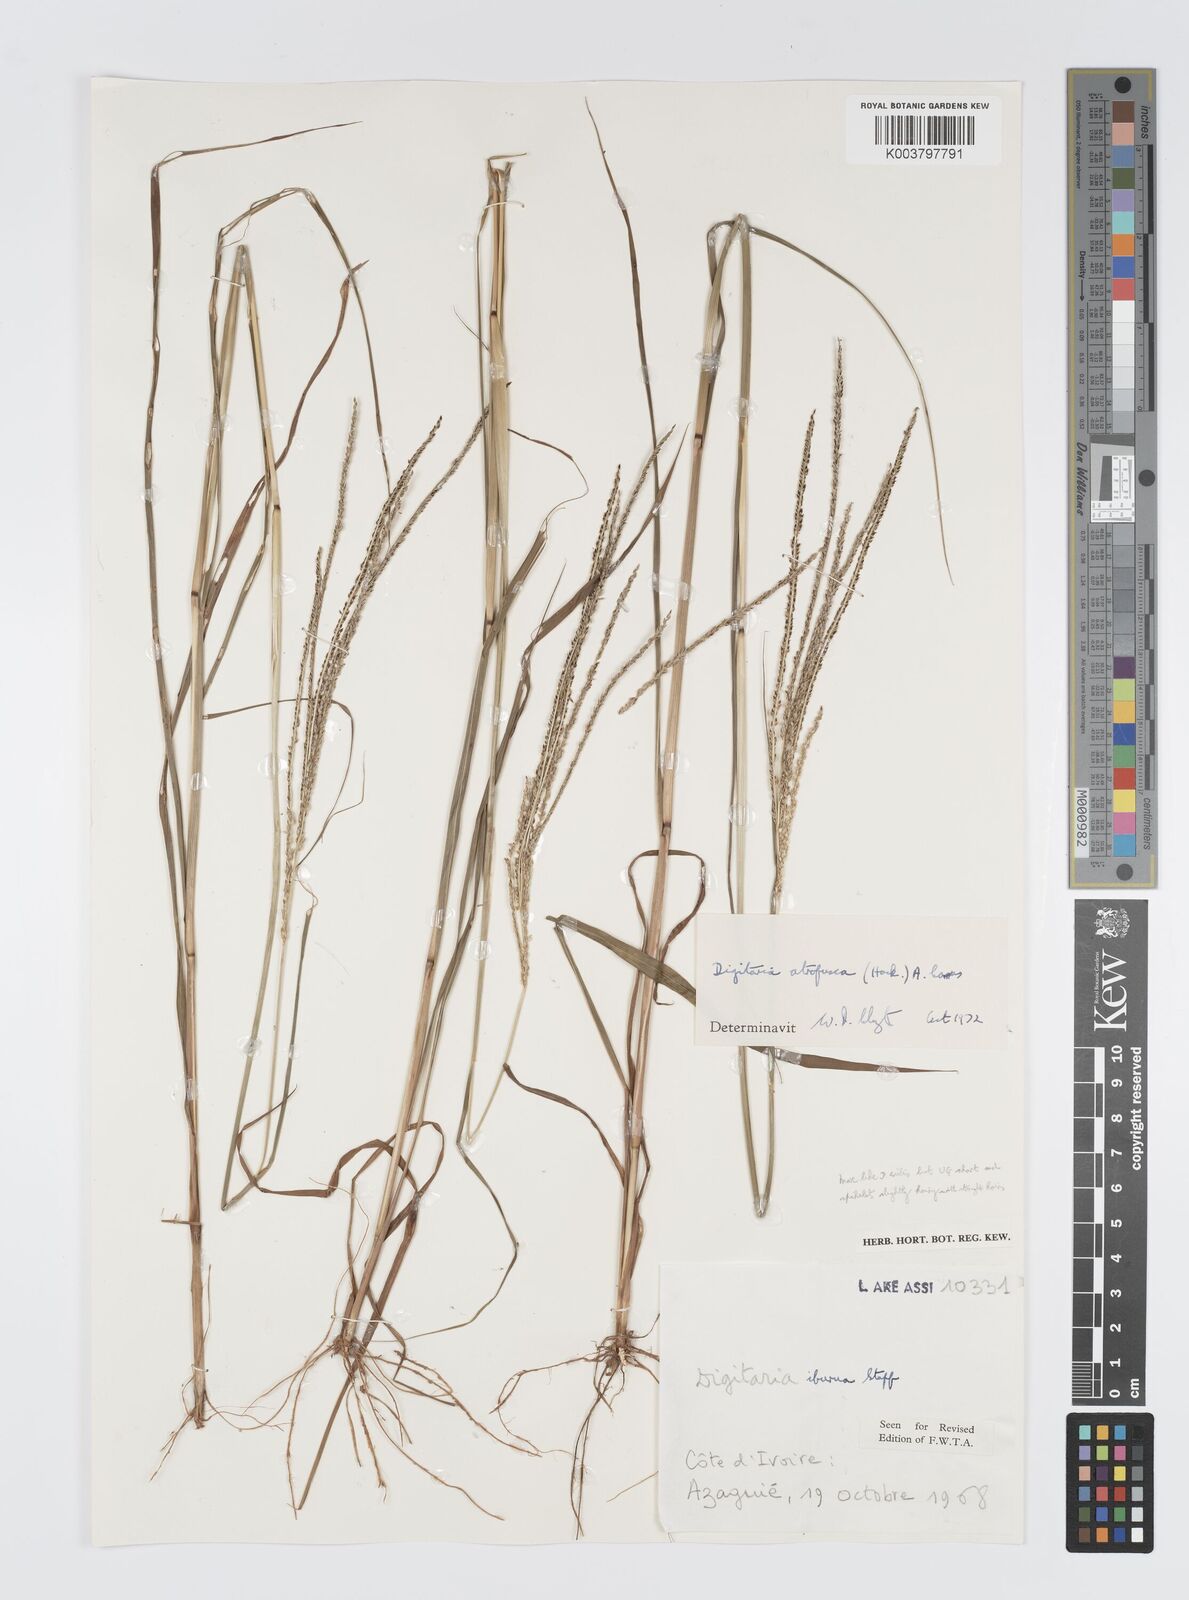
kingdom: Plantae
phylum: Tracheophyta
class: Liliopsida
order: Poales
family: Poaceae
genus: Digitaria
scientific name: Digitaria atrofusca
